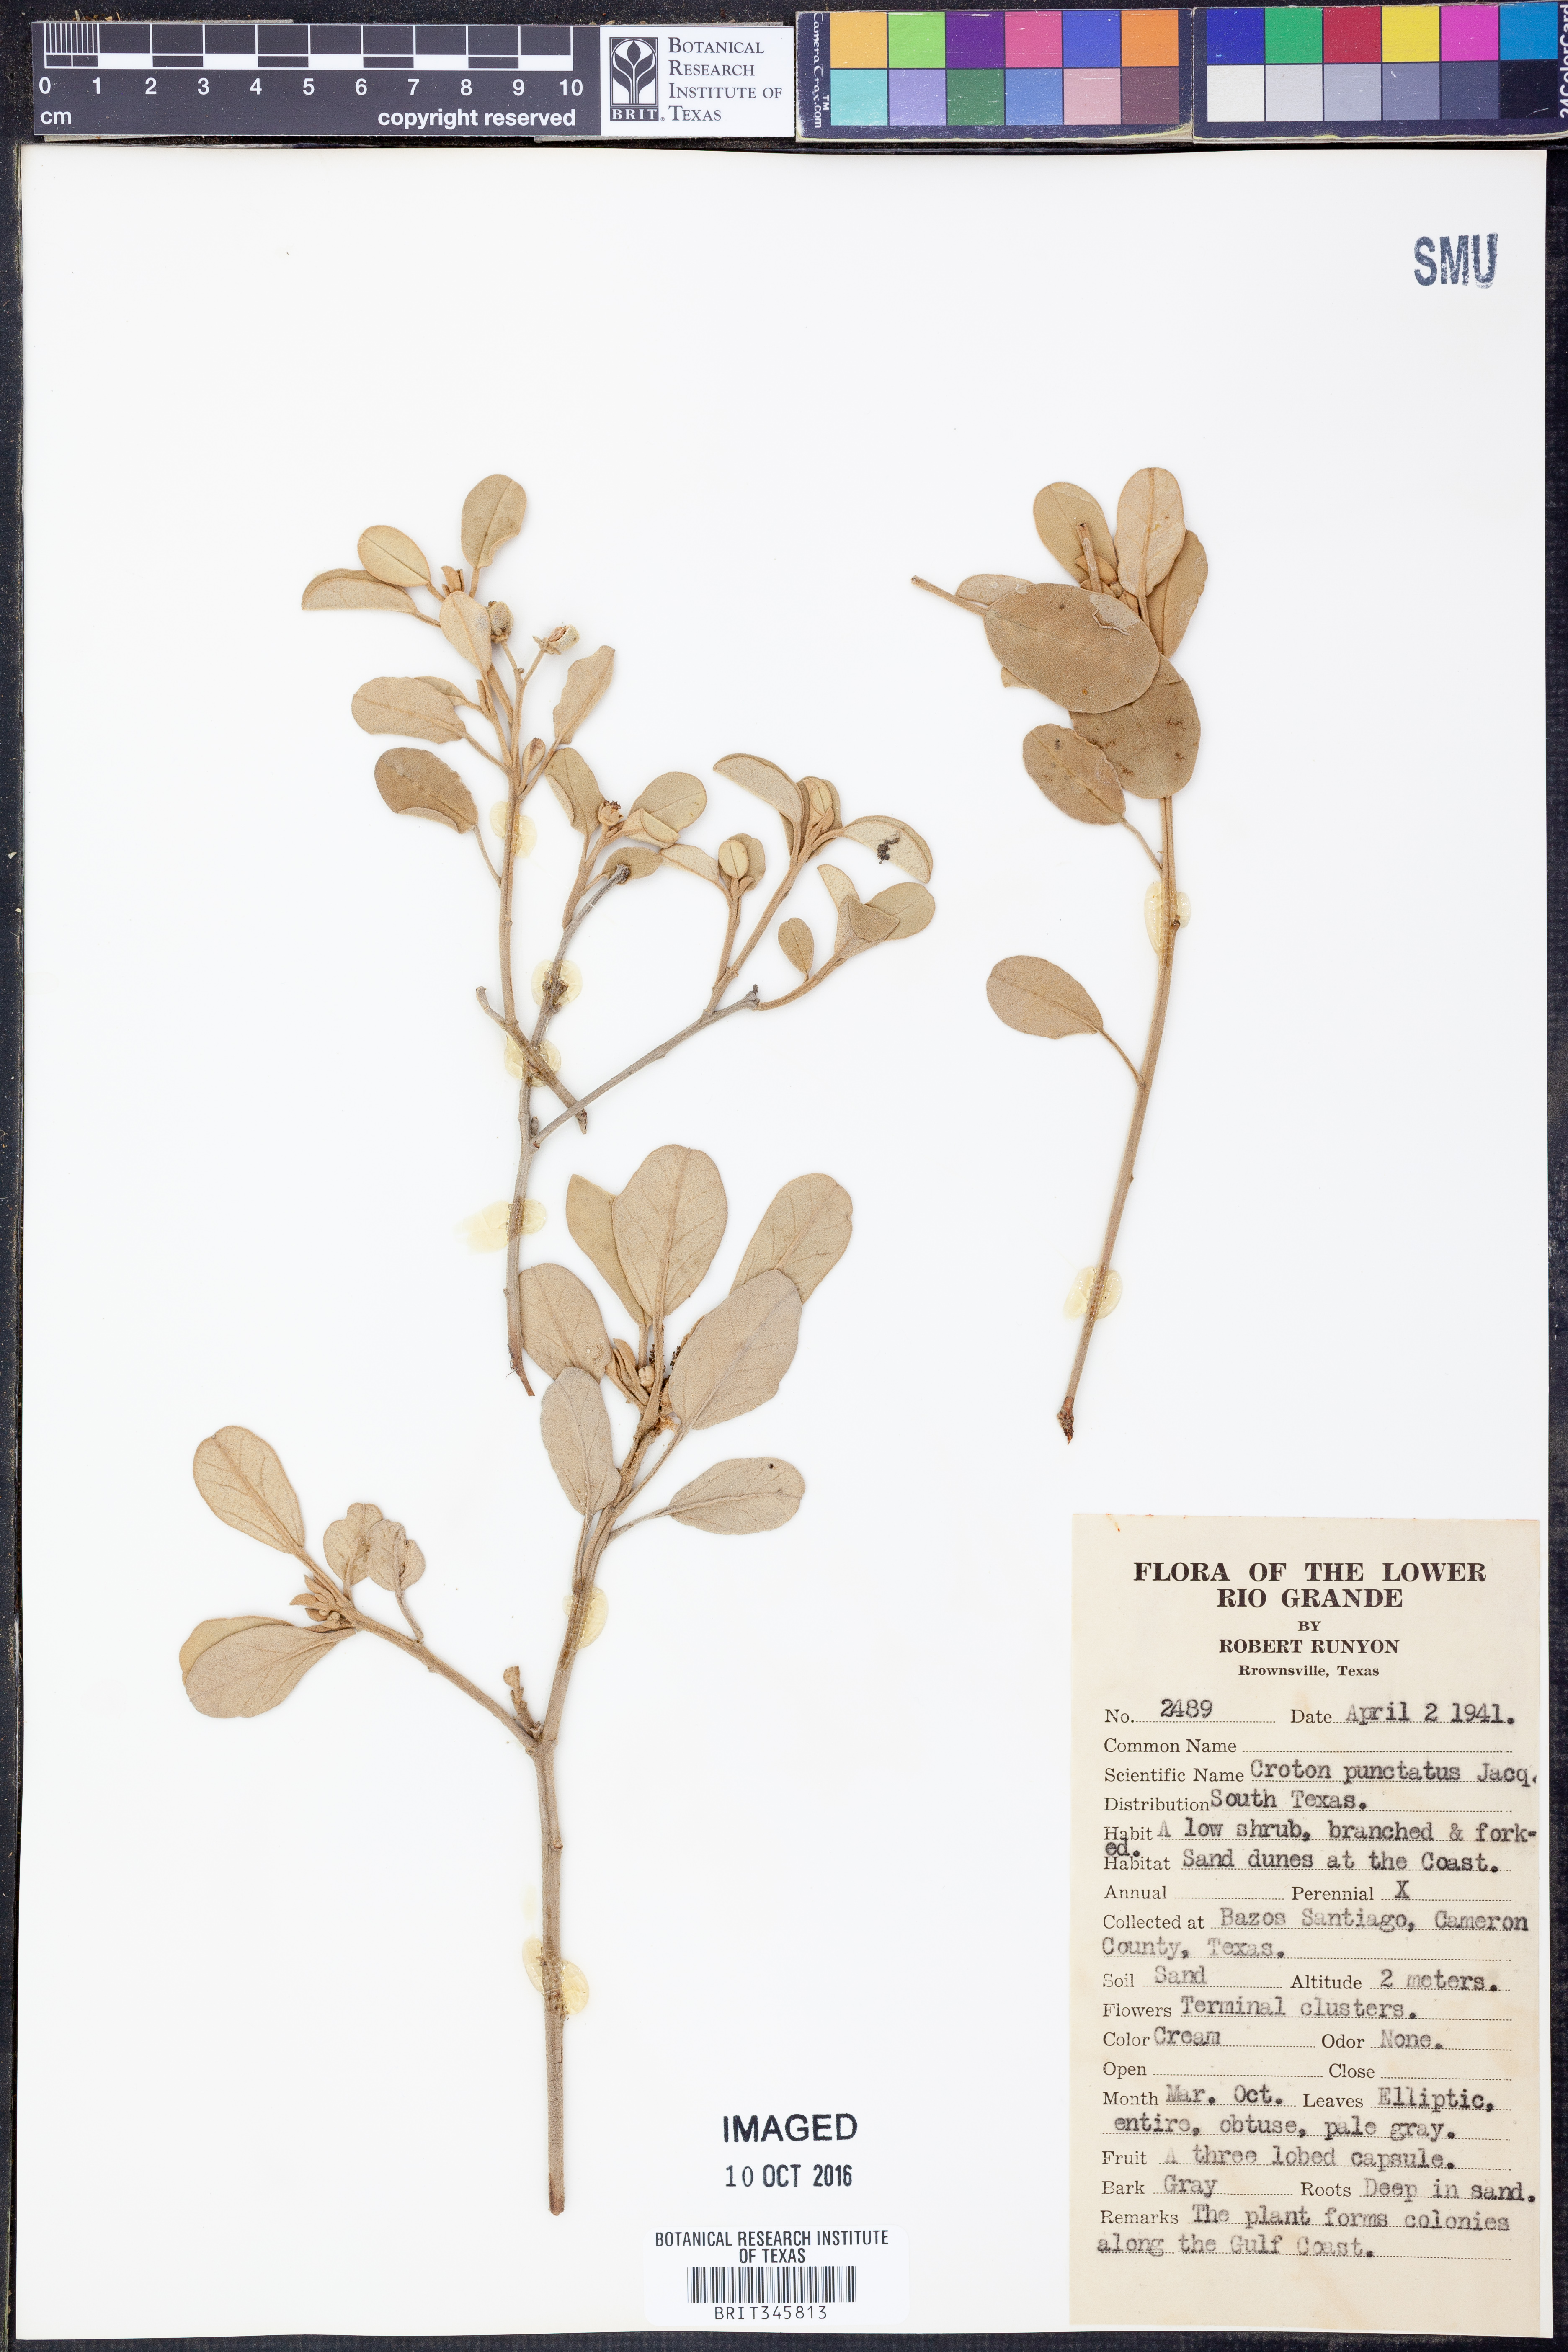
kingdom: Plantae
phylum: Tracheophyta
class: Magnoliopsida
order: Malpighiales
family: Euphorbiaceae
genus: Croton
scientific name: Croton punctatus
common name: Beach-tea
